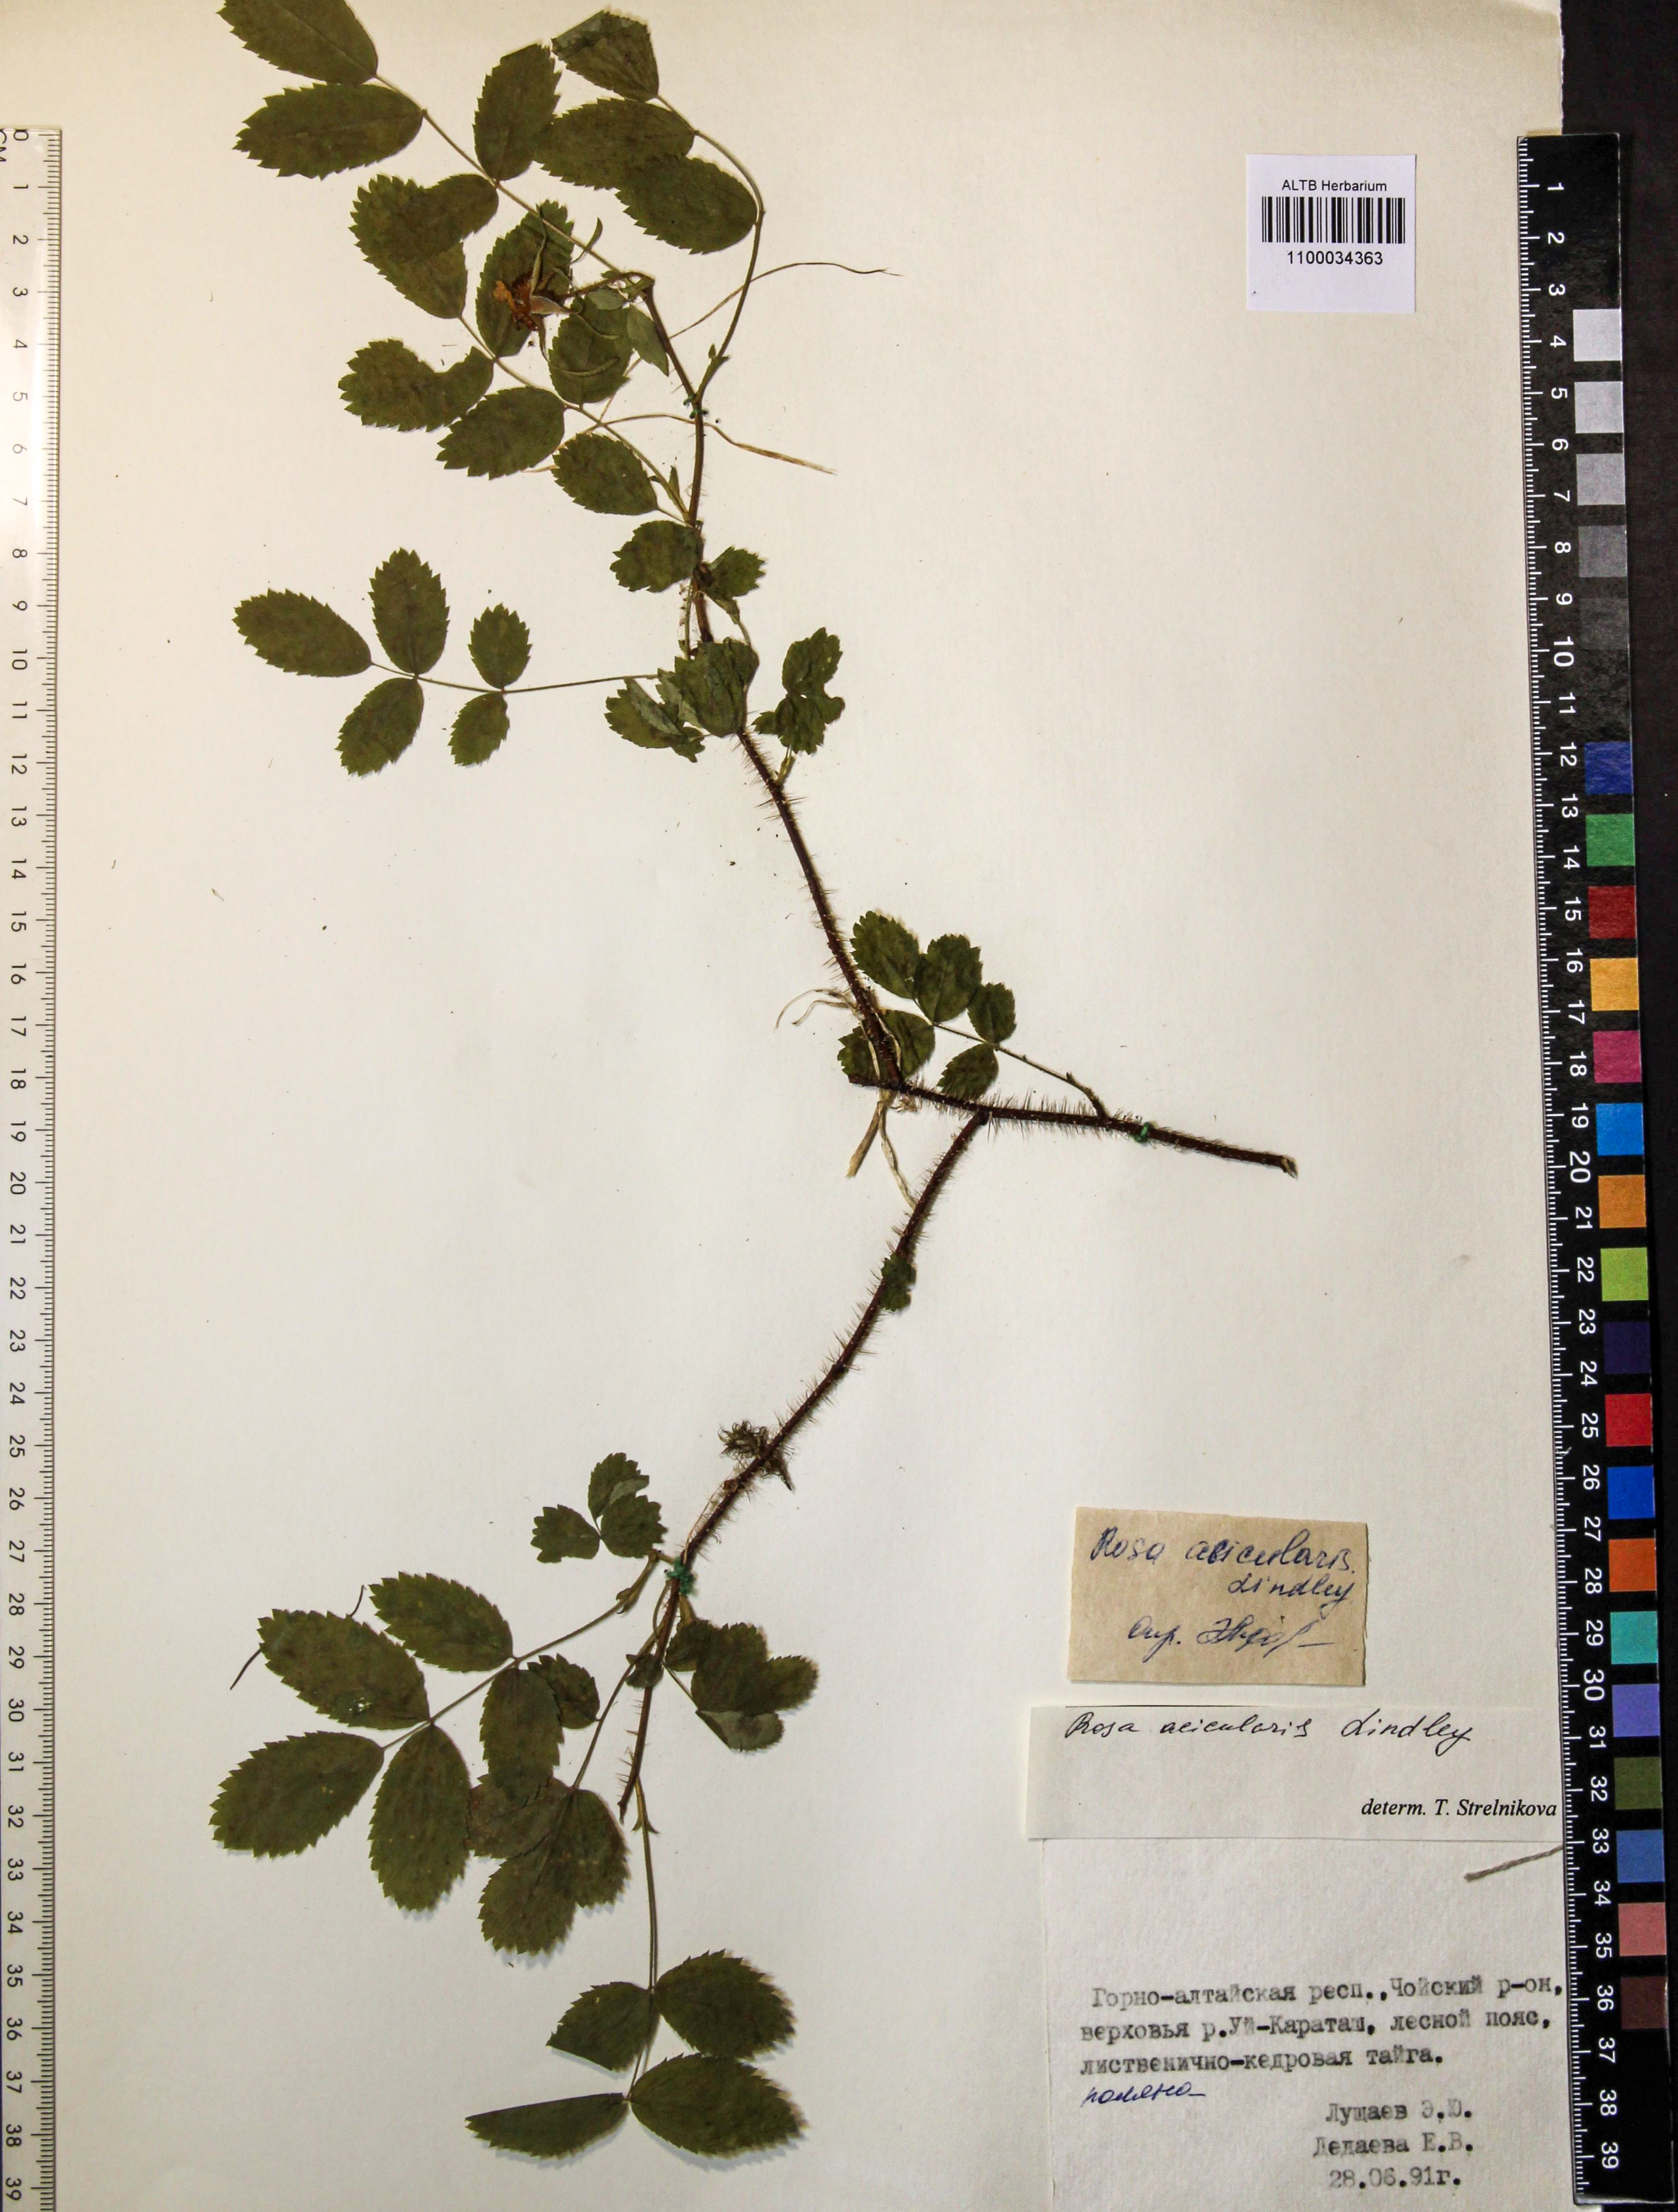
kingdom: Plantae
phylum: Tracheophyta
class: Magnoliopsida
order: Rosales
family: Rosaceae
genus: Rosa
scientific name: Rosa acicularis
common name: Prickly rose
